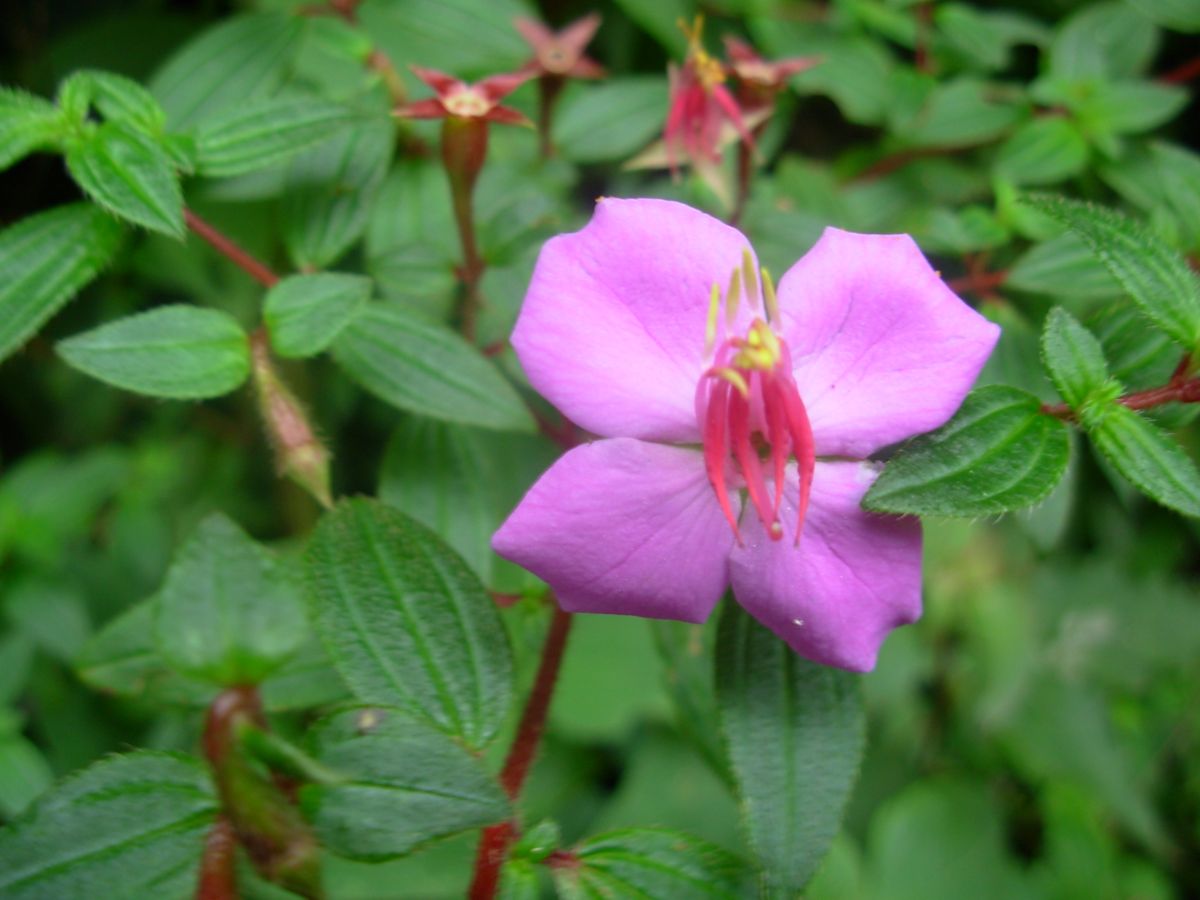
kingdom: Plantae
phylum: Tracheophyta
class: Magnoliopsida
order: Piperales
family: Piperaceae
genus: Peperomia
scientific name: Peperomia quadrifolia
